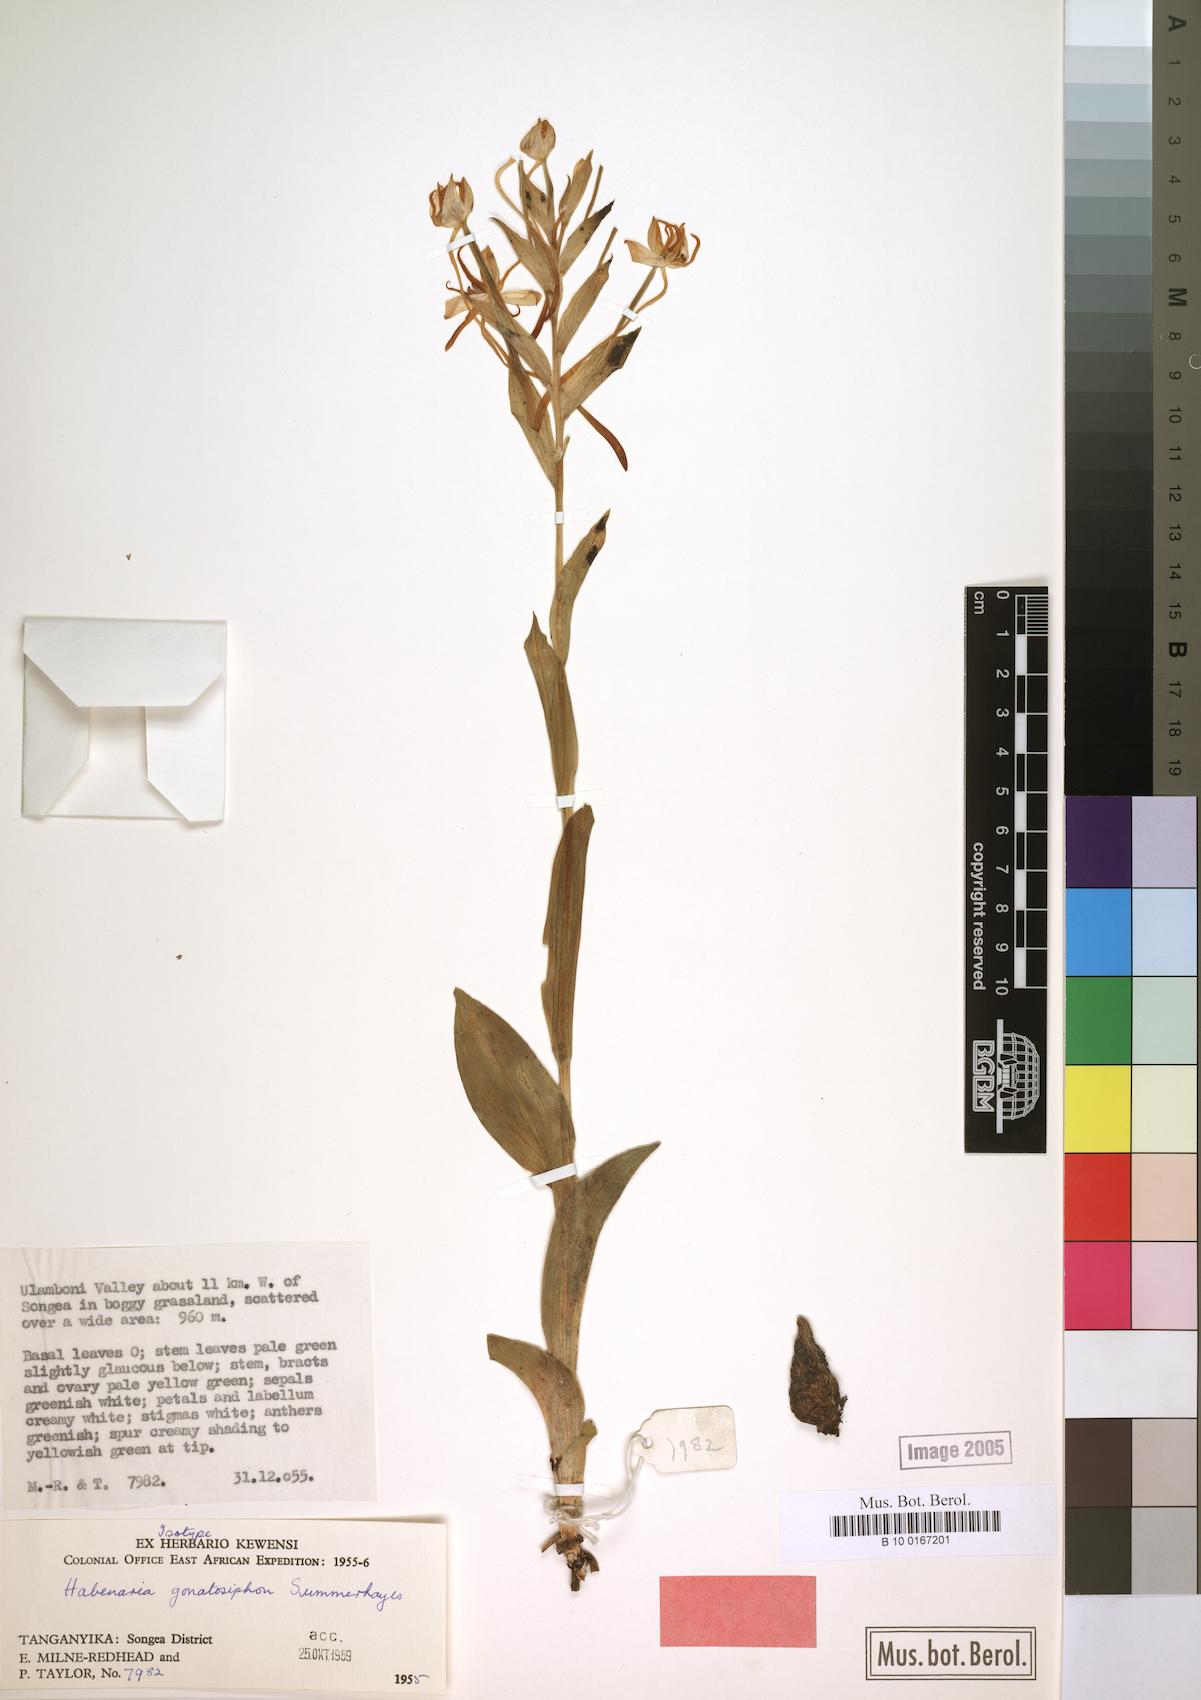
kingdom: Plantae
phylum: Tracheophyta
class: Liliopsida
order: Asparagales
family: Orchidaceae
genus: Habenaria
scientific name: Habenaria gonatosiphon
